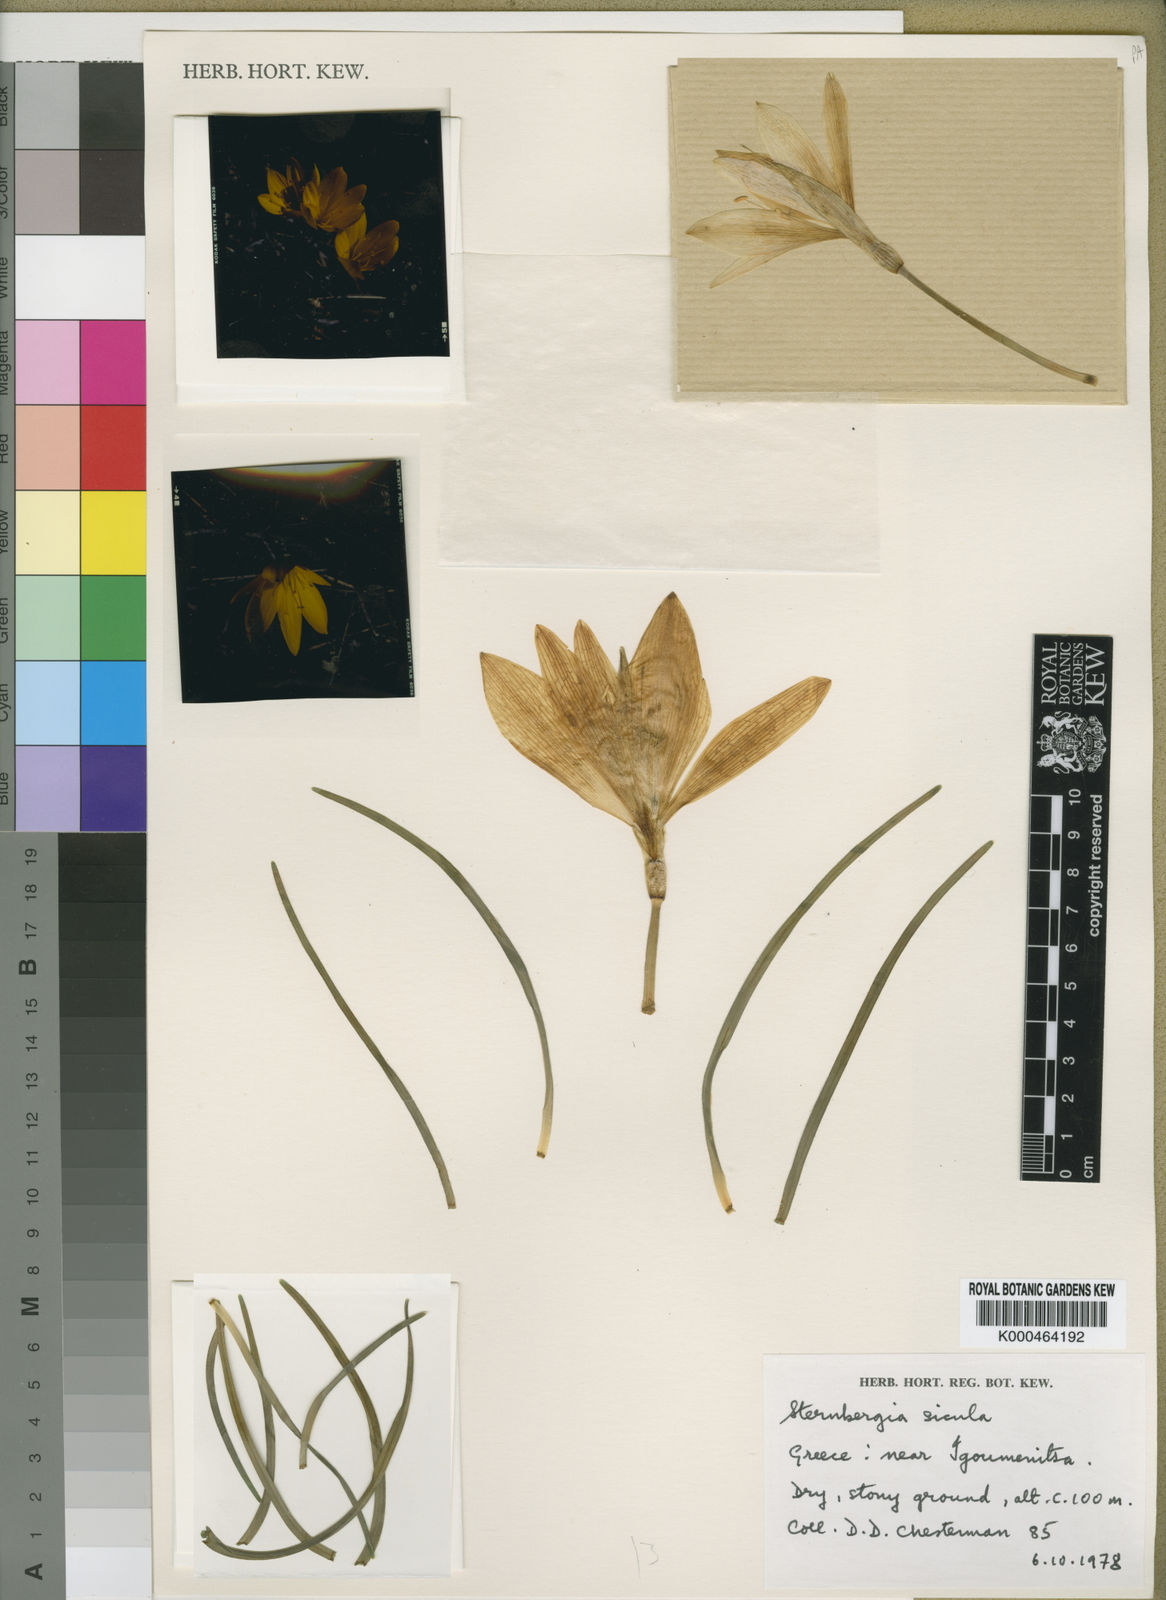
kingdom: Plantae
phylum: Tracheophyta
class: Liliopsida
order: Asparagales
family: Amaryllidaceae
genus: Sternbergia
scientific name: Sternbergia
